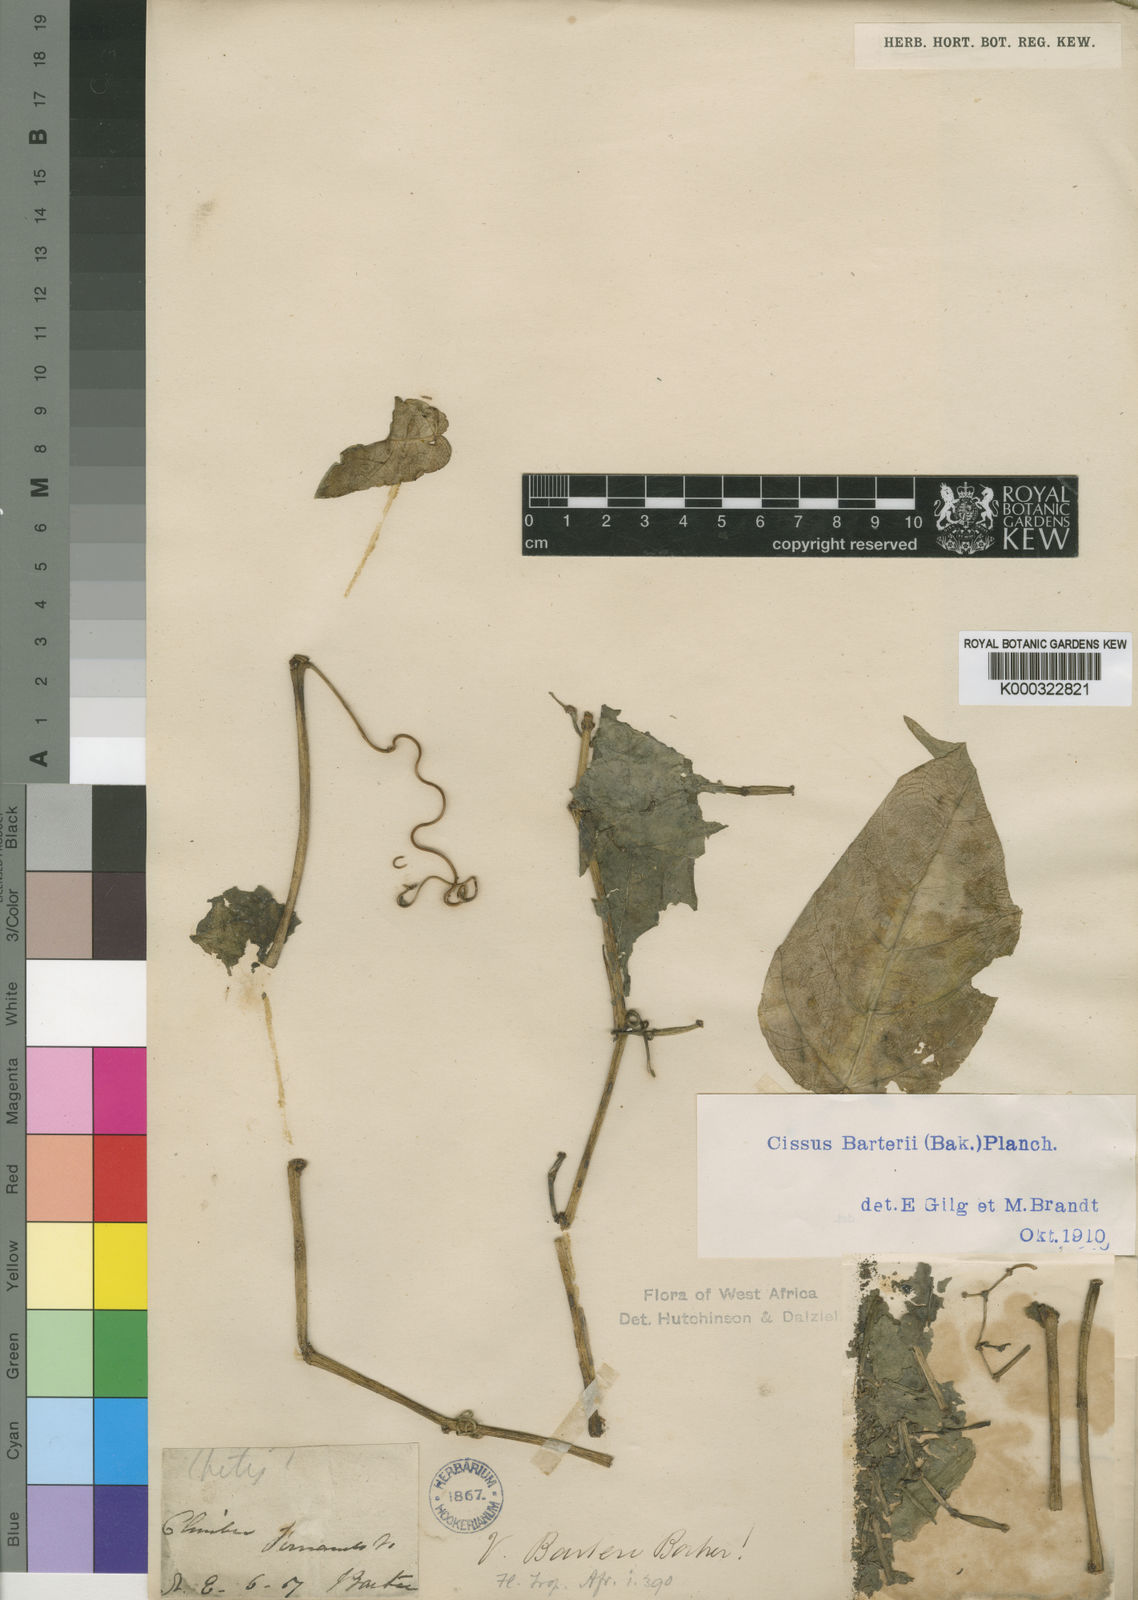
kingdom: Plantae
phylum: Tracheophyta
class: Magnoliopsida
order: Vitales
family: Vitaceae
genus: Cissus
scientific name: Cissus barteri
